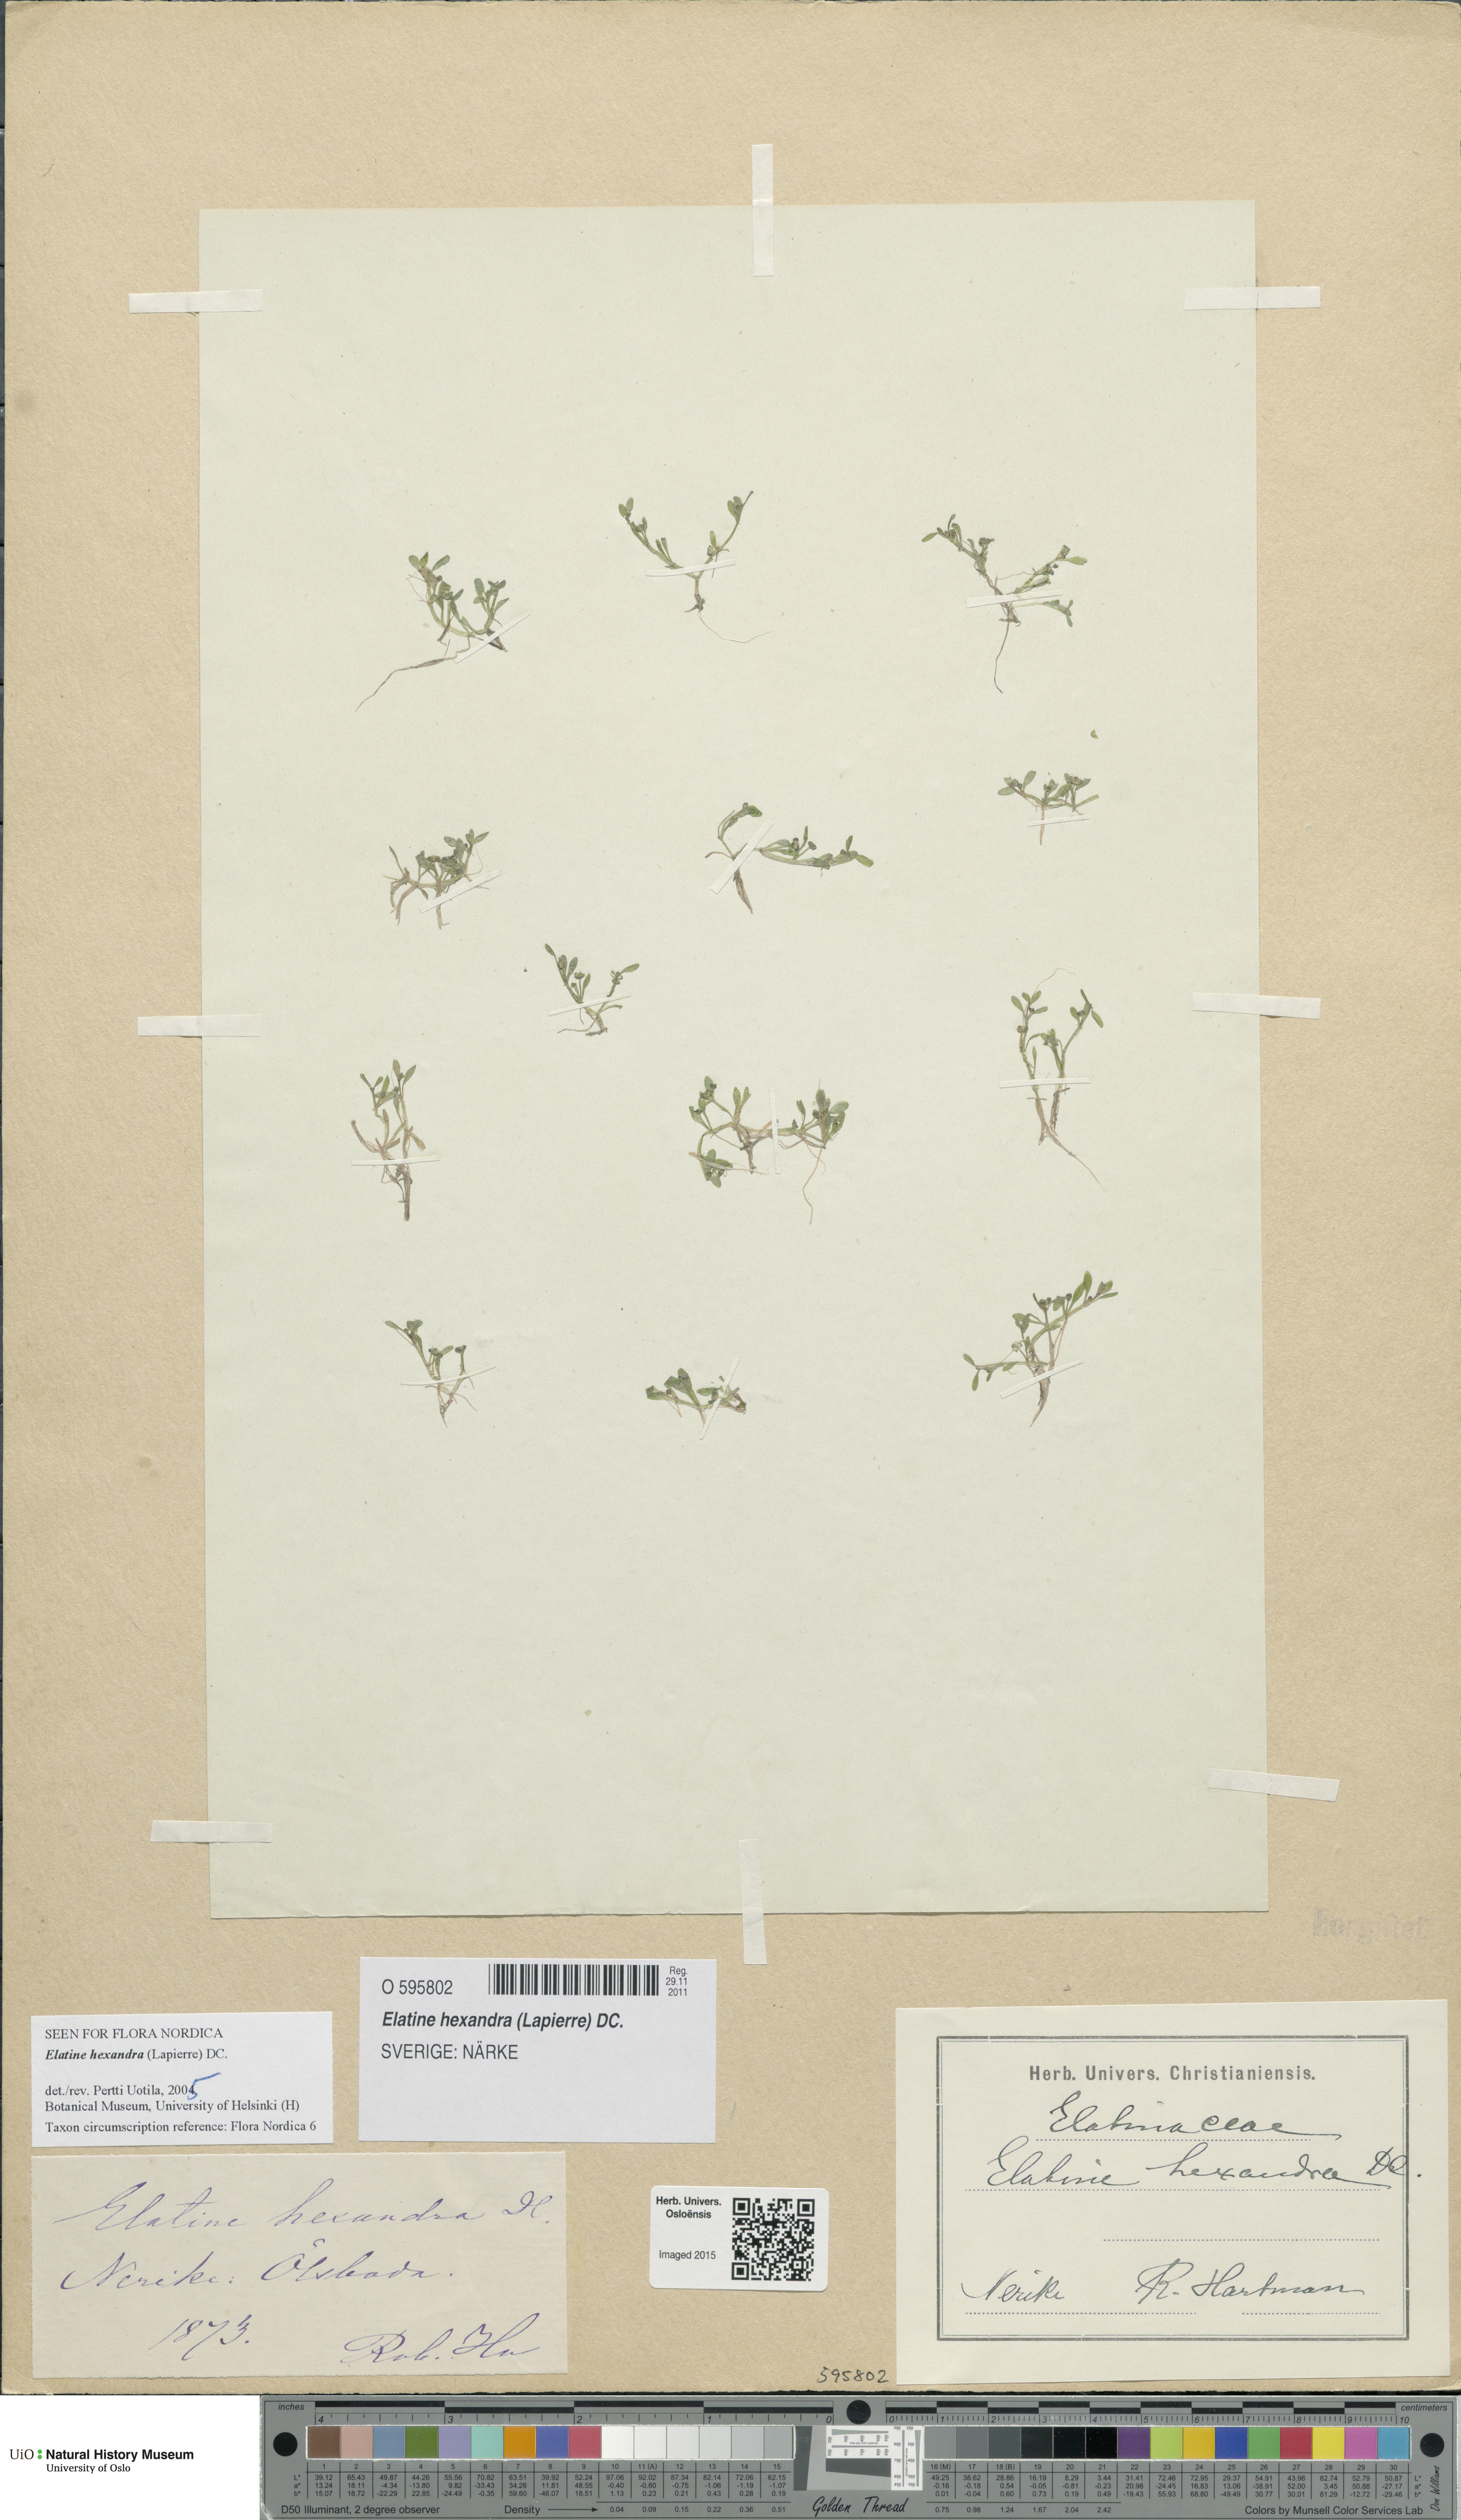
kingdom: Plantae
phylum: Tracheophyta
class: Magnoliopsida
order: Malpighiales
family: Elatinaceae
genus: Elatine
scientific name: Elatine hexandra
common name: Six-stamened waterwort
